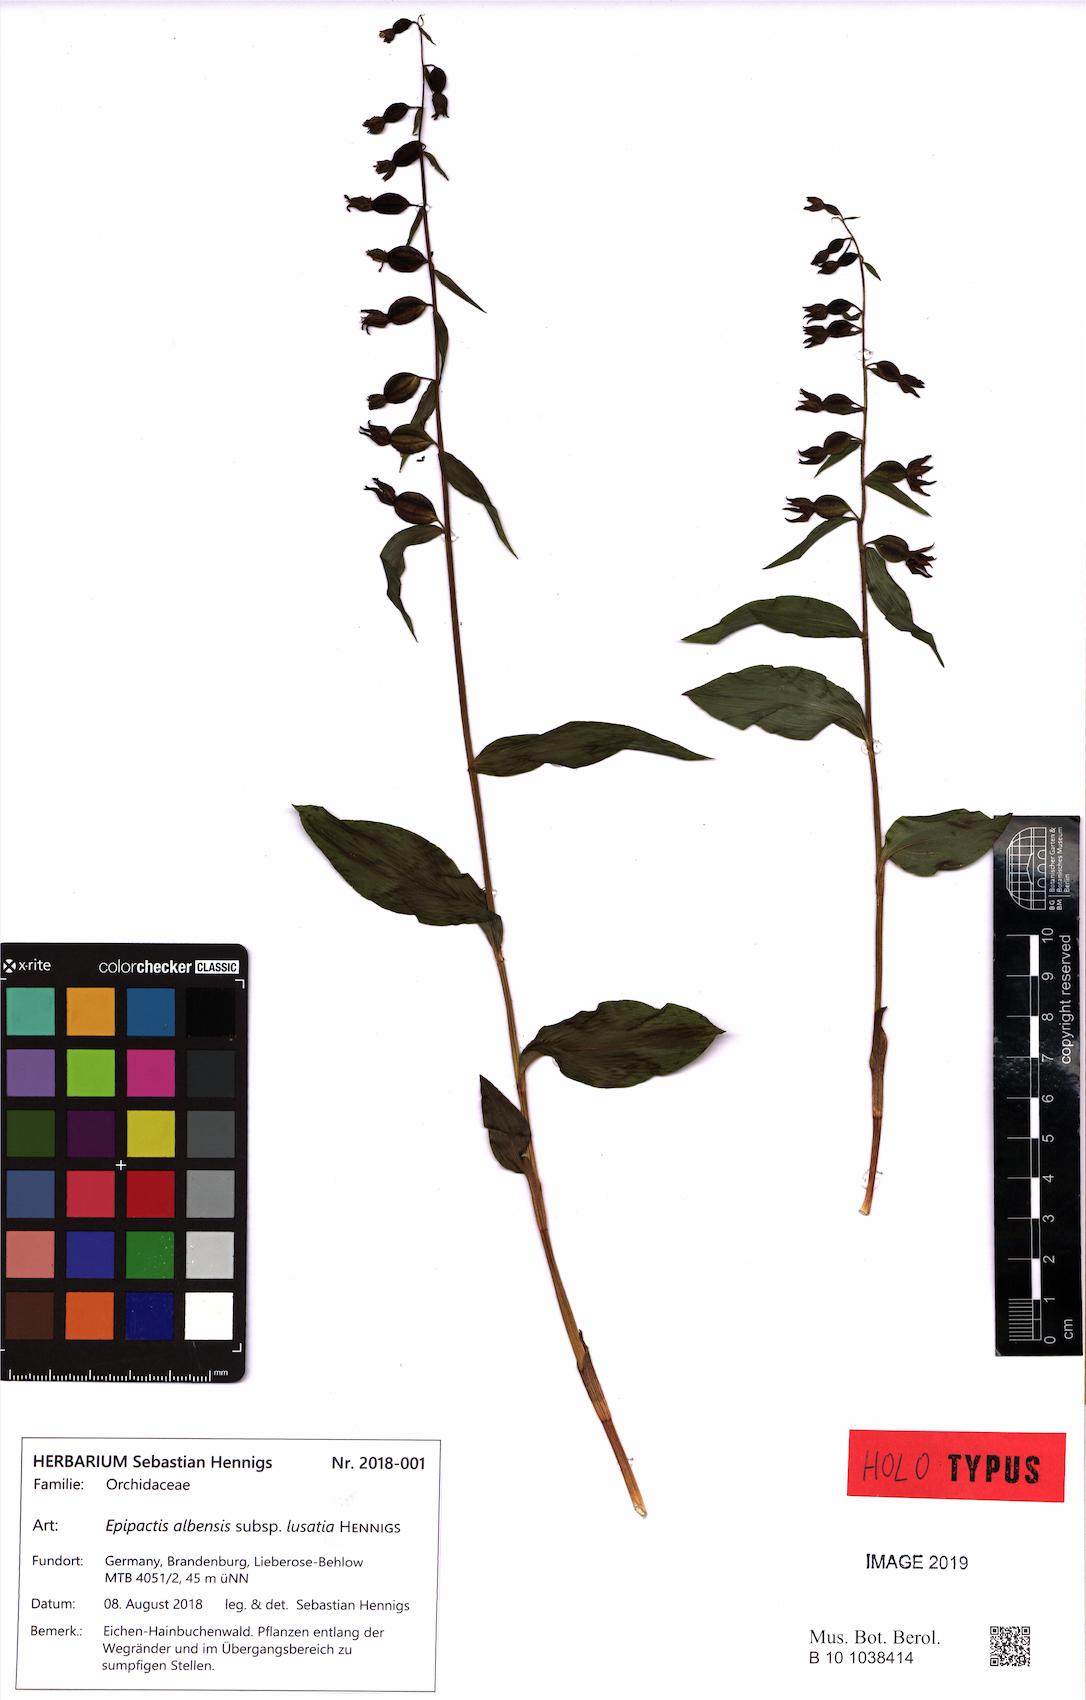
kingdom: Plantae
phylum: Tracheophyta
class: Liliopsida
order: Asparagales
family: Orchidaceae
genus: Epipactis
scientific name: Epipactis albensis
